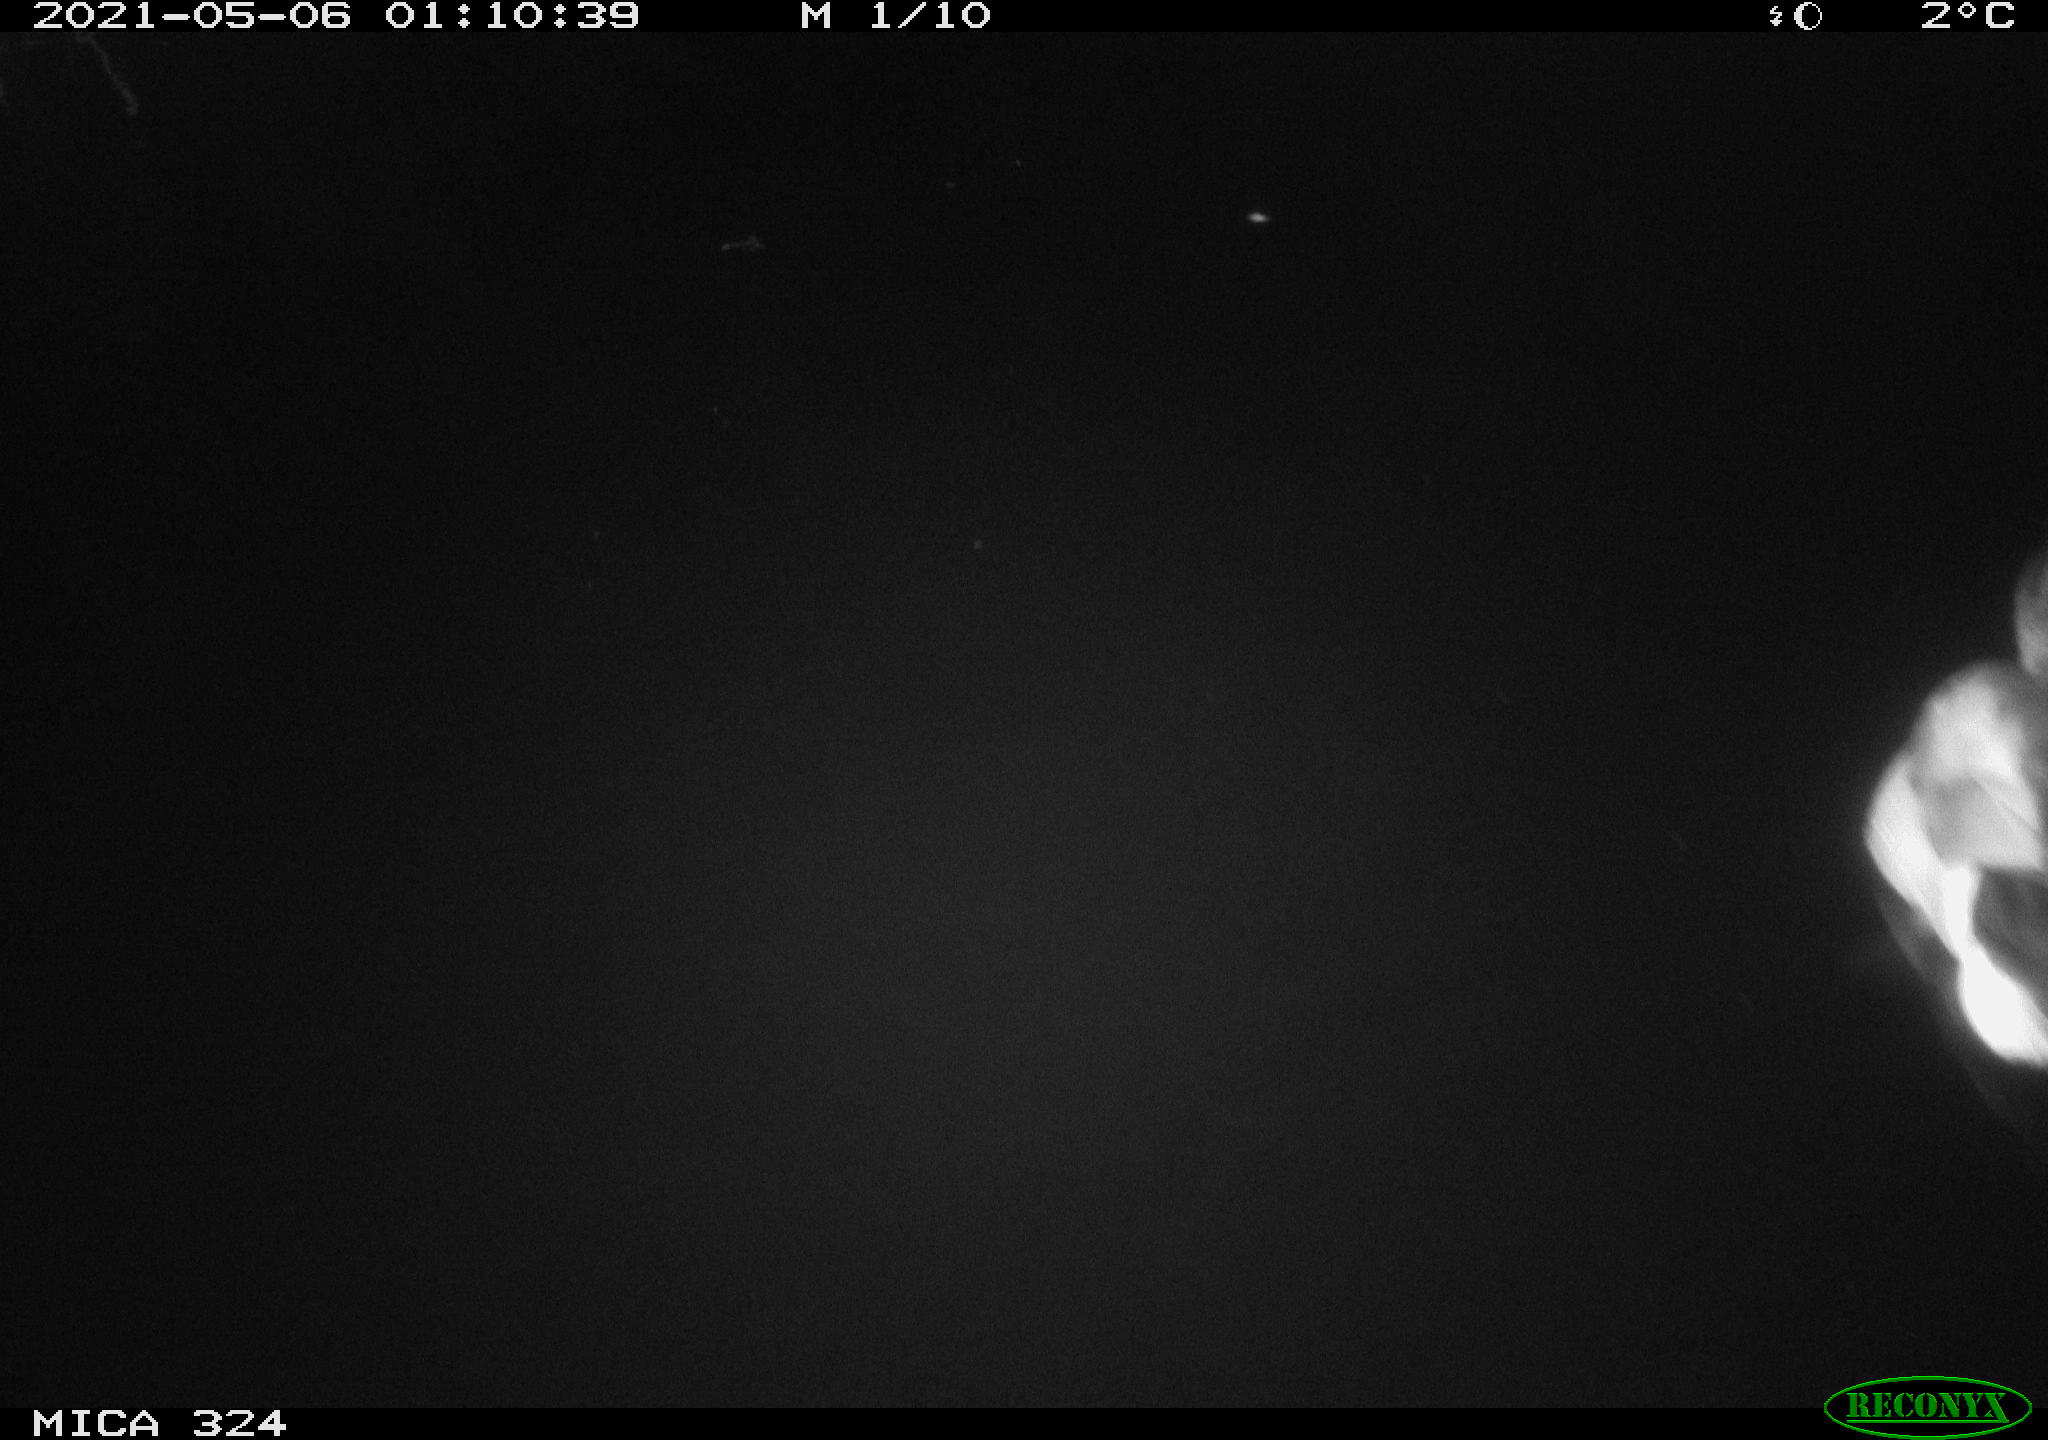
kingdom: Animalia
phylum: Chordata
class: Aves
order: Anseriformes
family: Anatidae
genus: Anas
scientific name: Anas platyrhynchos
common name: Mallard
